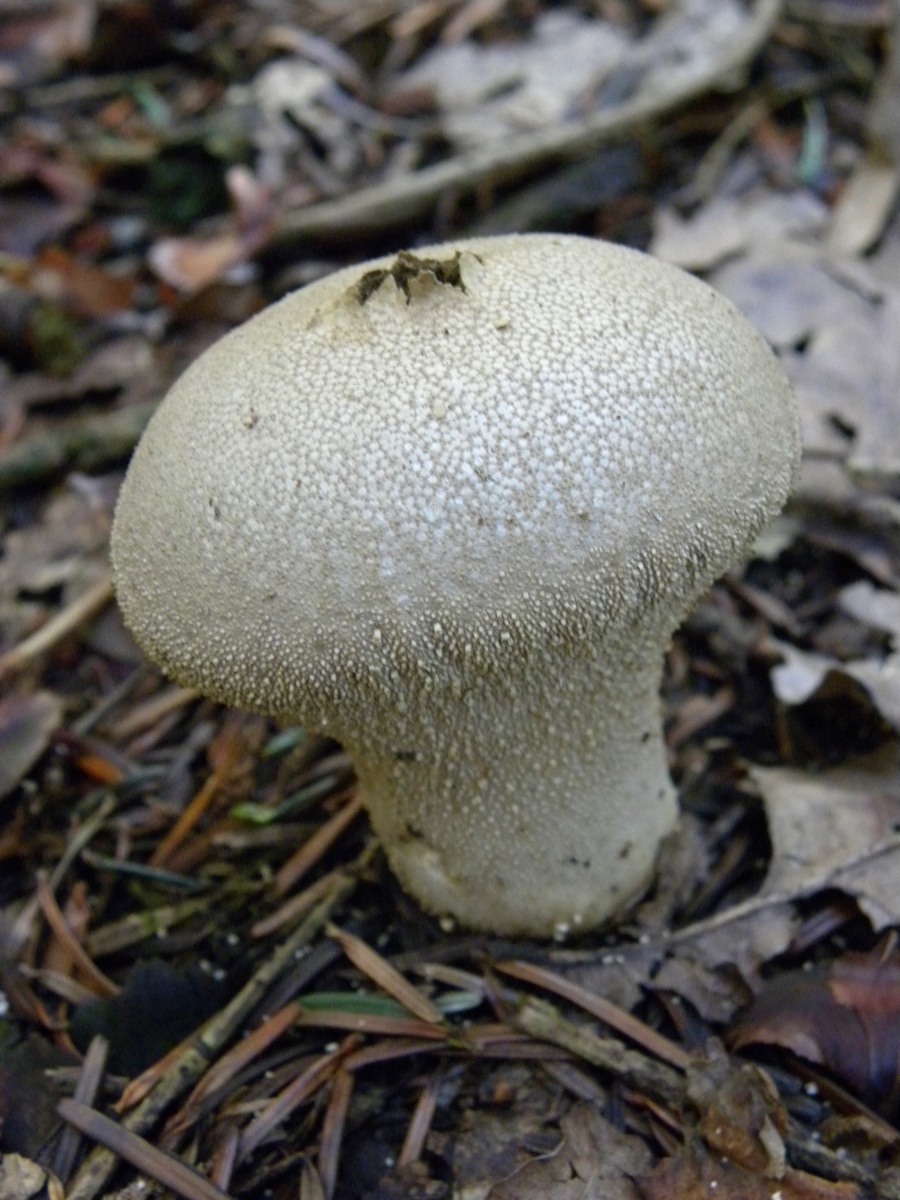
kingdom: Fungi
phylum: Basidiomycota
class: Agaricomycetes
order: Agaricales
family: Lycoperdaceae
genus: Lycoperdon
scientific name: Lycoperdon perlatum
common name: krystal-støvbold
